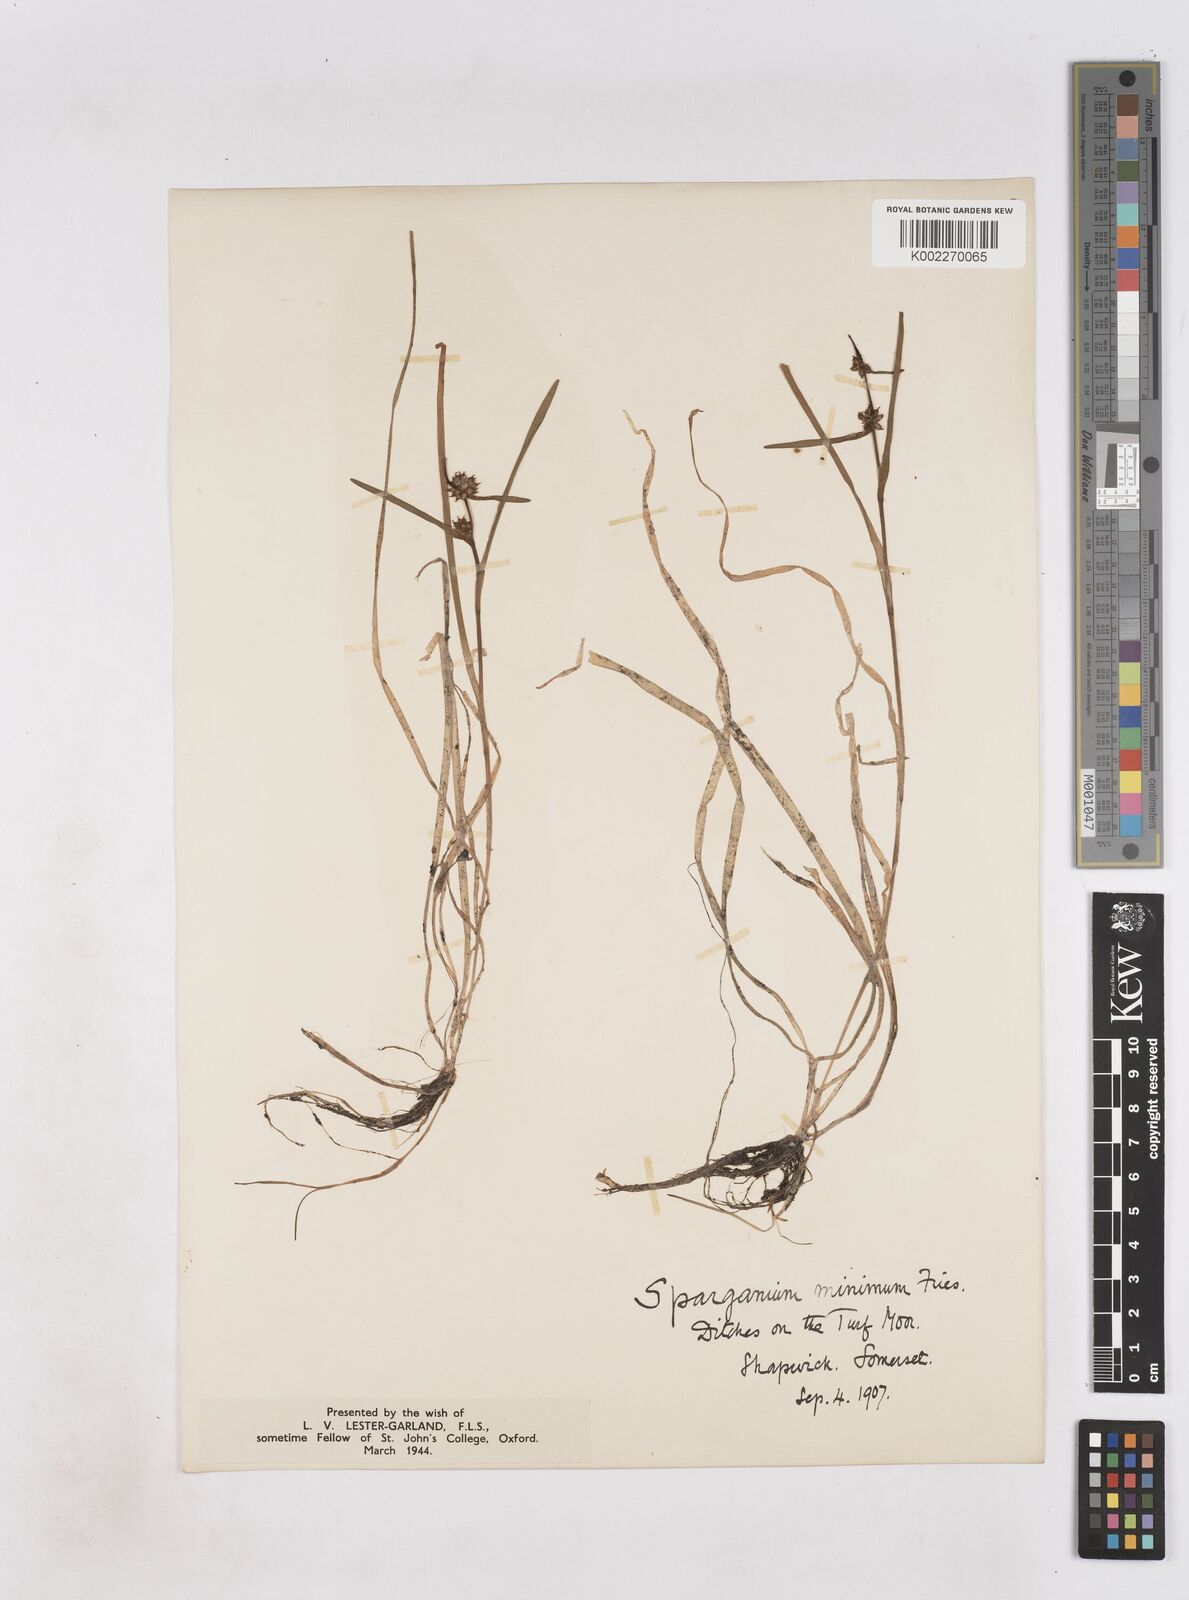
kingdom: Plantae
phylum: Tracheophyta
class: Liliopsida
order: Poales
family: Typhaceae
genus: Sparganium
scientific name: Sparganium natans
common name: Least bur-reed
